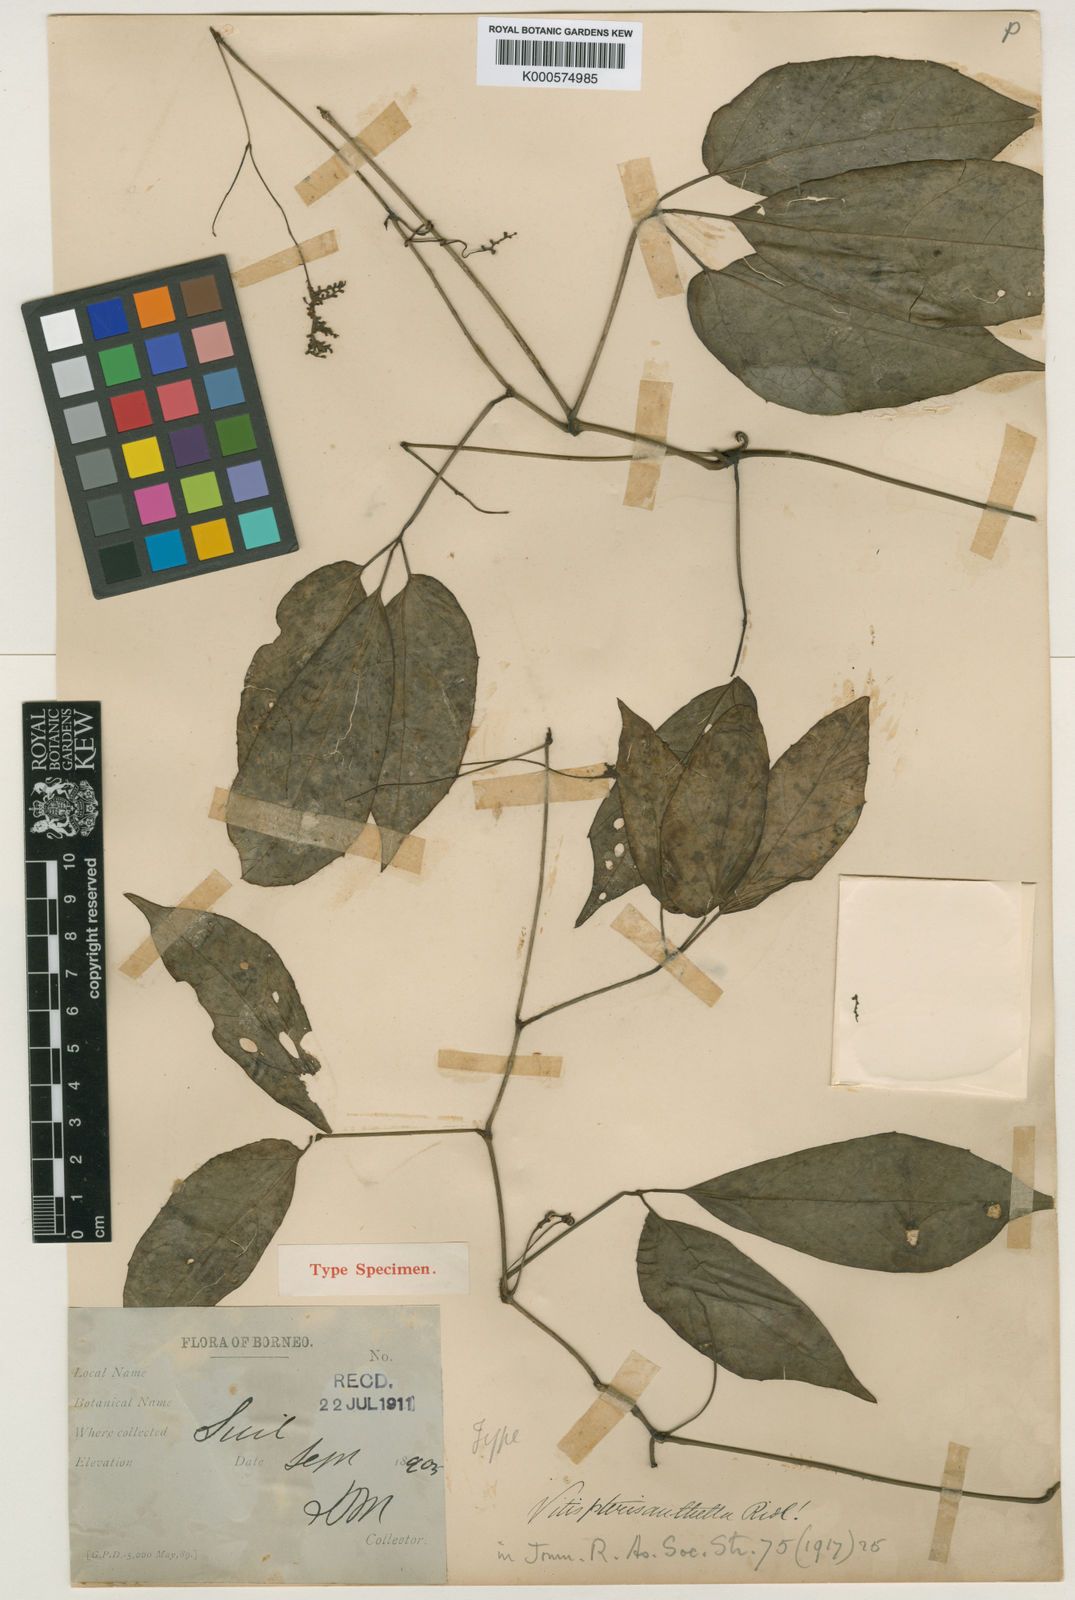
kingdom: Plantae
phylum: Tracheophyta
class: Magnoliopsida
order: Vitales
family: Vitaceae
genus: Ampelocissus
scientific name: Ampelocissus pterisanthella
